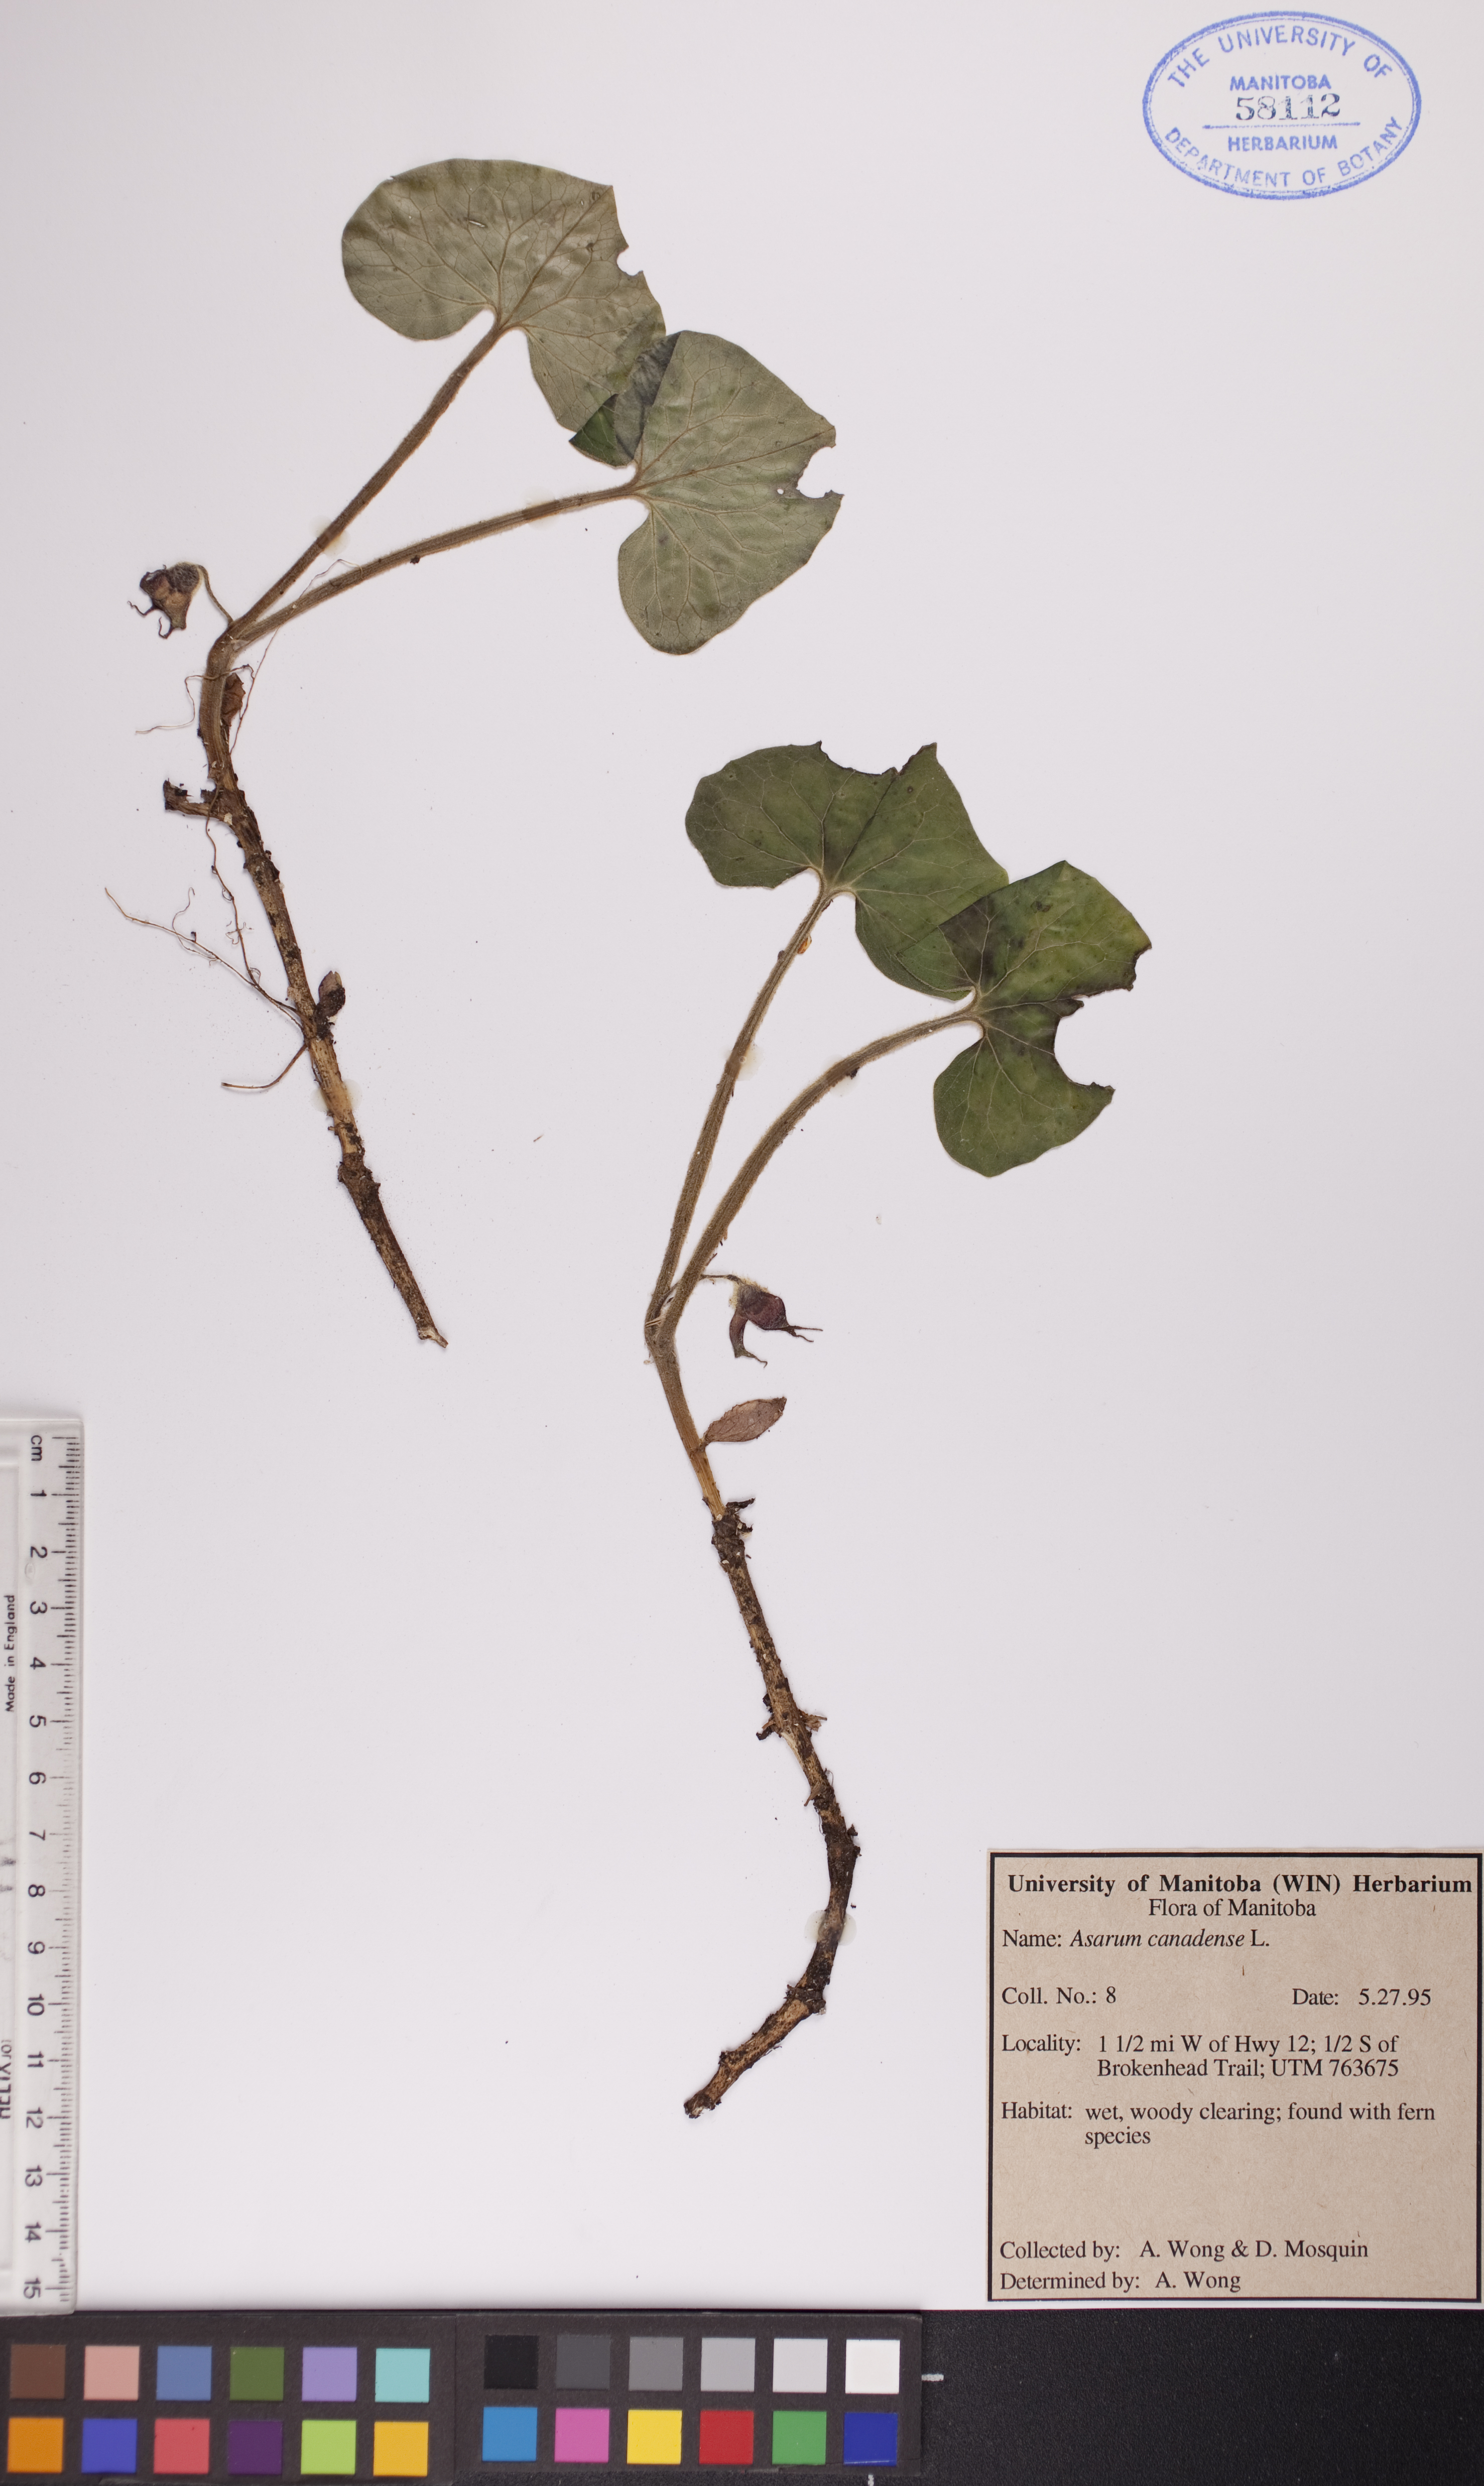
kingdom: Plantae
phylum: Tracheophyta
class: Magnoliopsida
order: Piperales
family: Aristolochiaceae
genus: Asarum
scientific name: Asarum canadense
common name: Wild ginger
